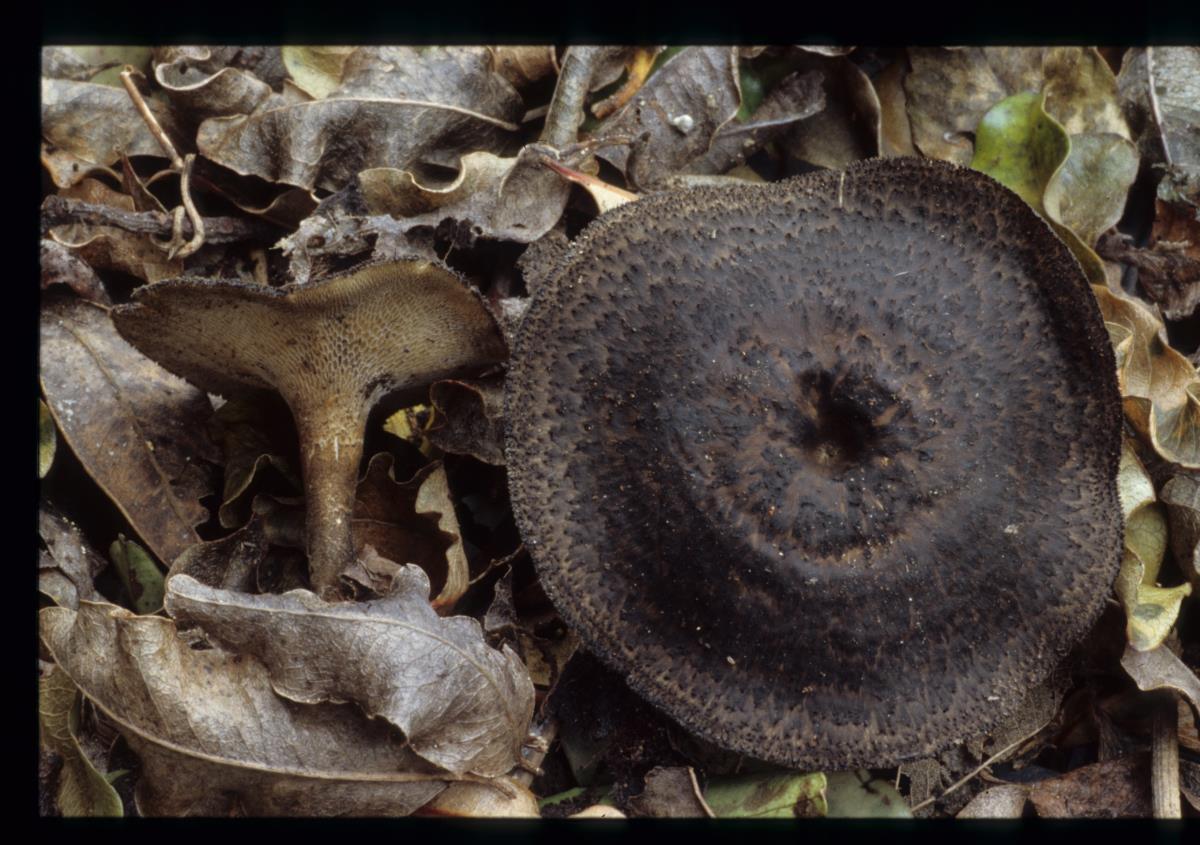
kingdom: Fungi
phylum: Basidiomycota
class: Agaricomycetes
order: Polyporales
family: Polyporaceae
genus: Lentinus
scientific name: Lentinus arcularius
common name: Spring polypore
